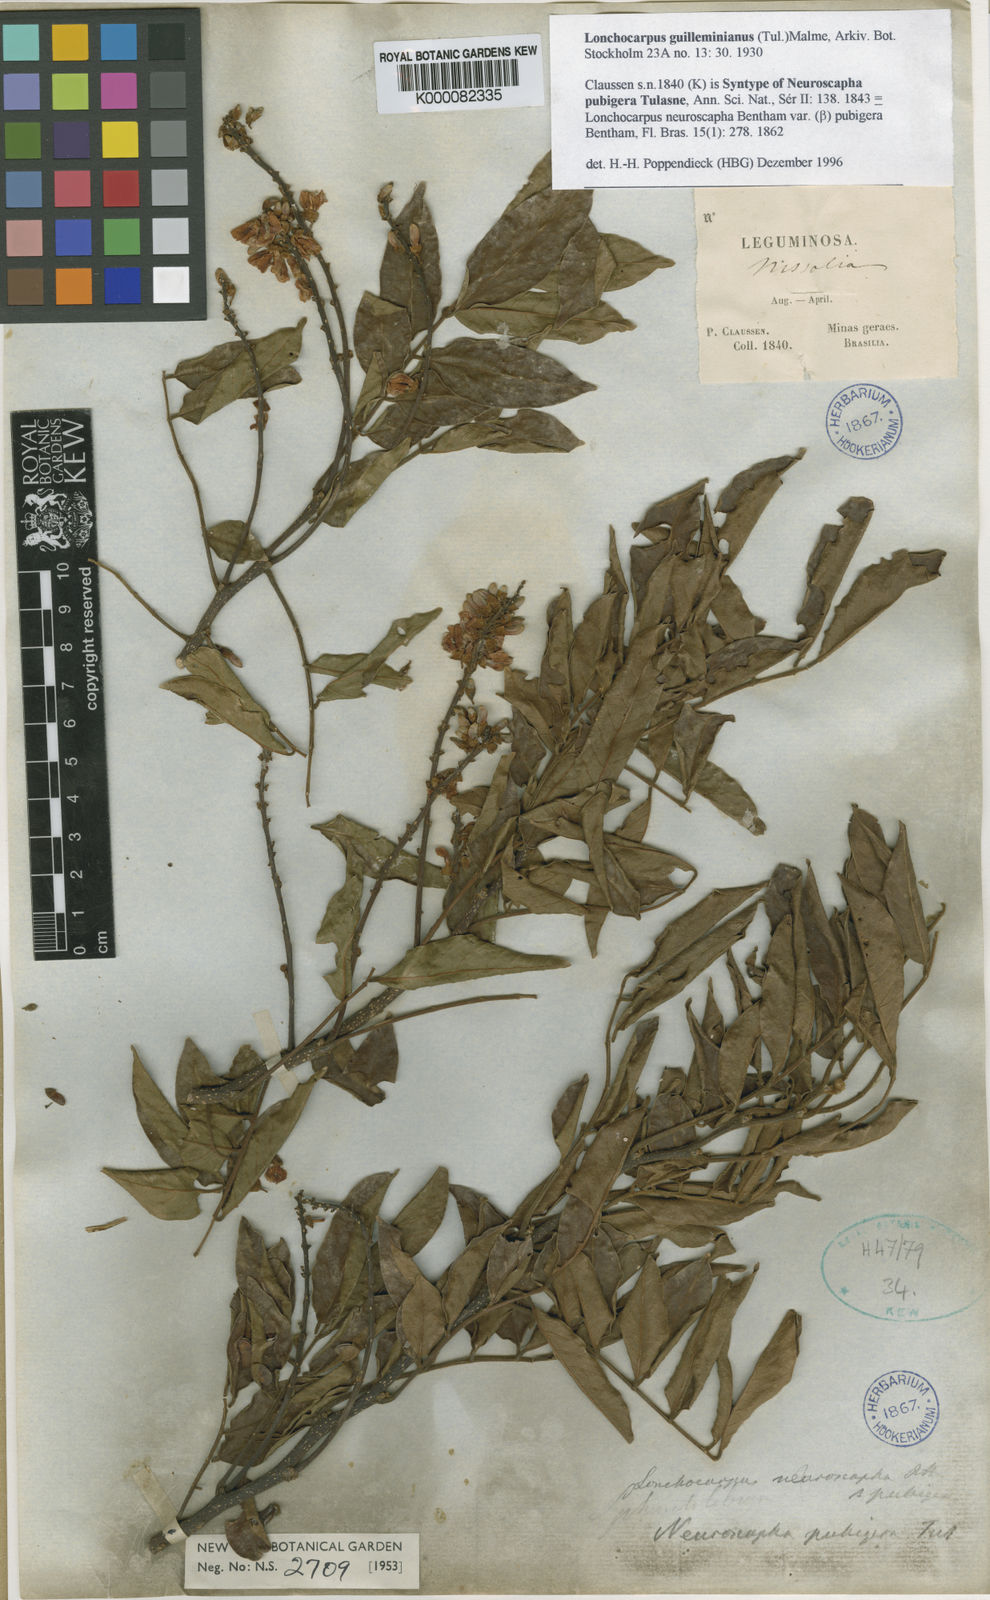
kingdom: Plantae
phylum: Tracheophyta
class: Magnoliopsida
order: Fabales
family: Fabaceae
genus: Lonchocarpus
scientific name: Lonchocarpus
